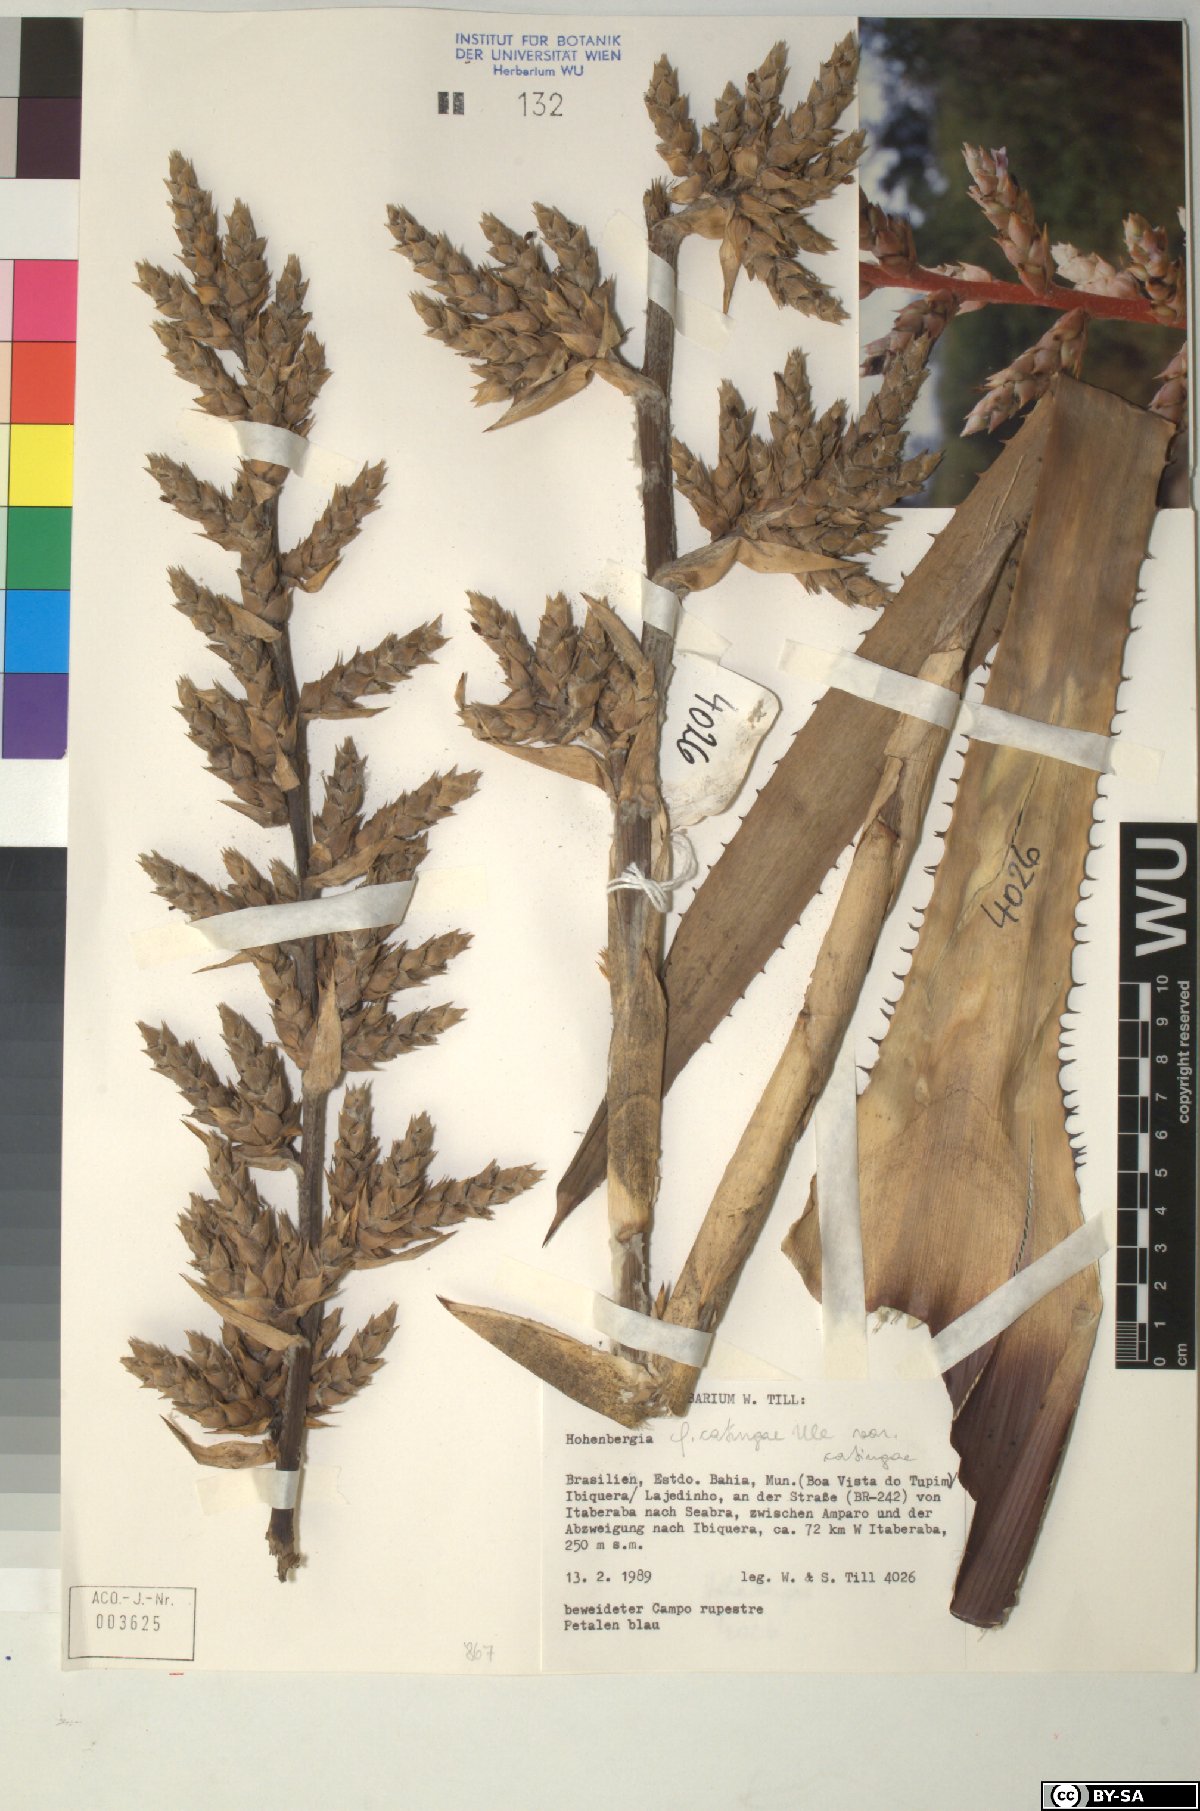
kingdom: Plantae
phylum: Tracheophyta
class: Liliopsida
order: Poales
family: Bromeliaceae
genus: Hohenbergia
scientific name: Hohenbergia
